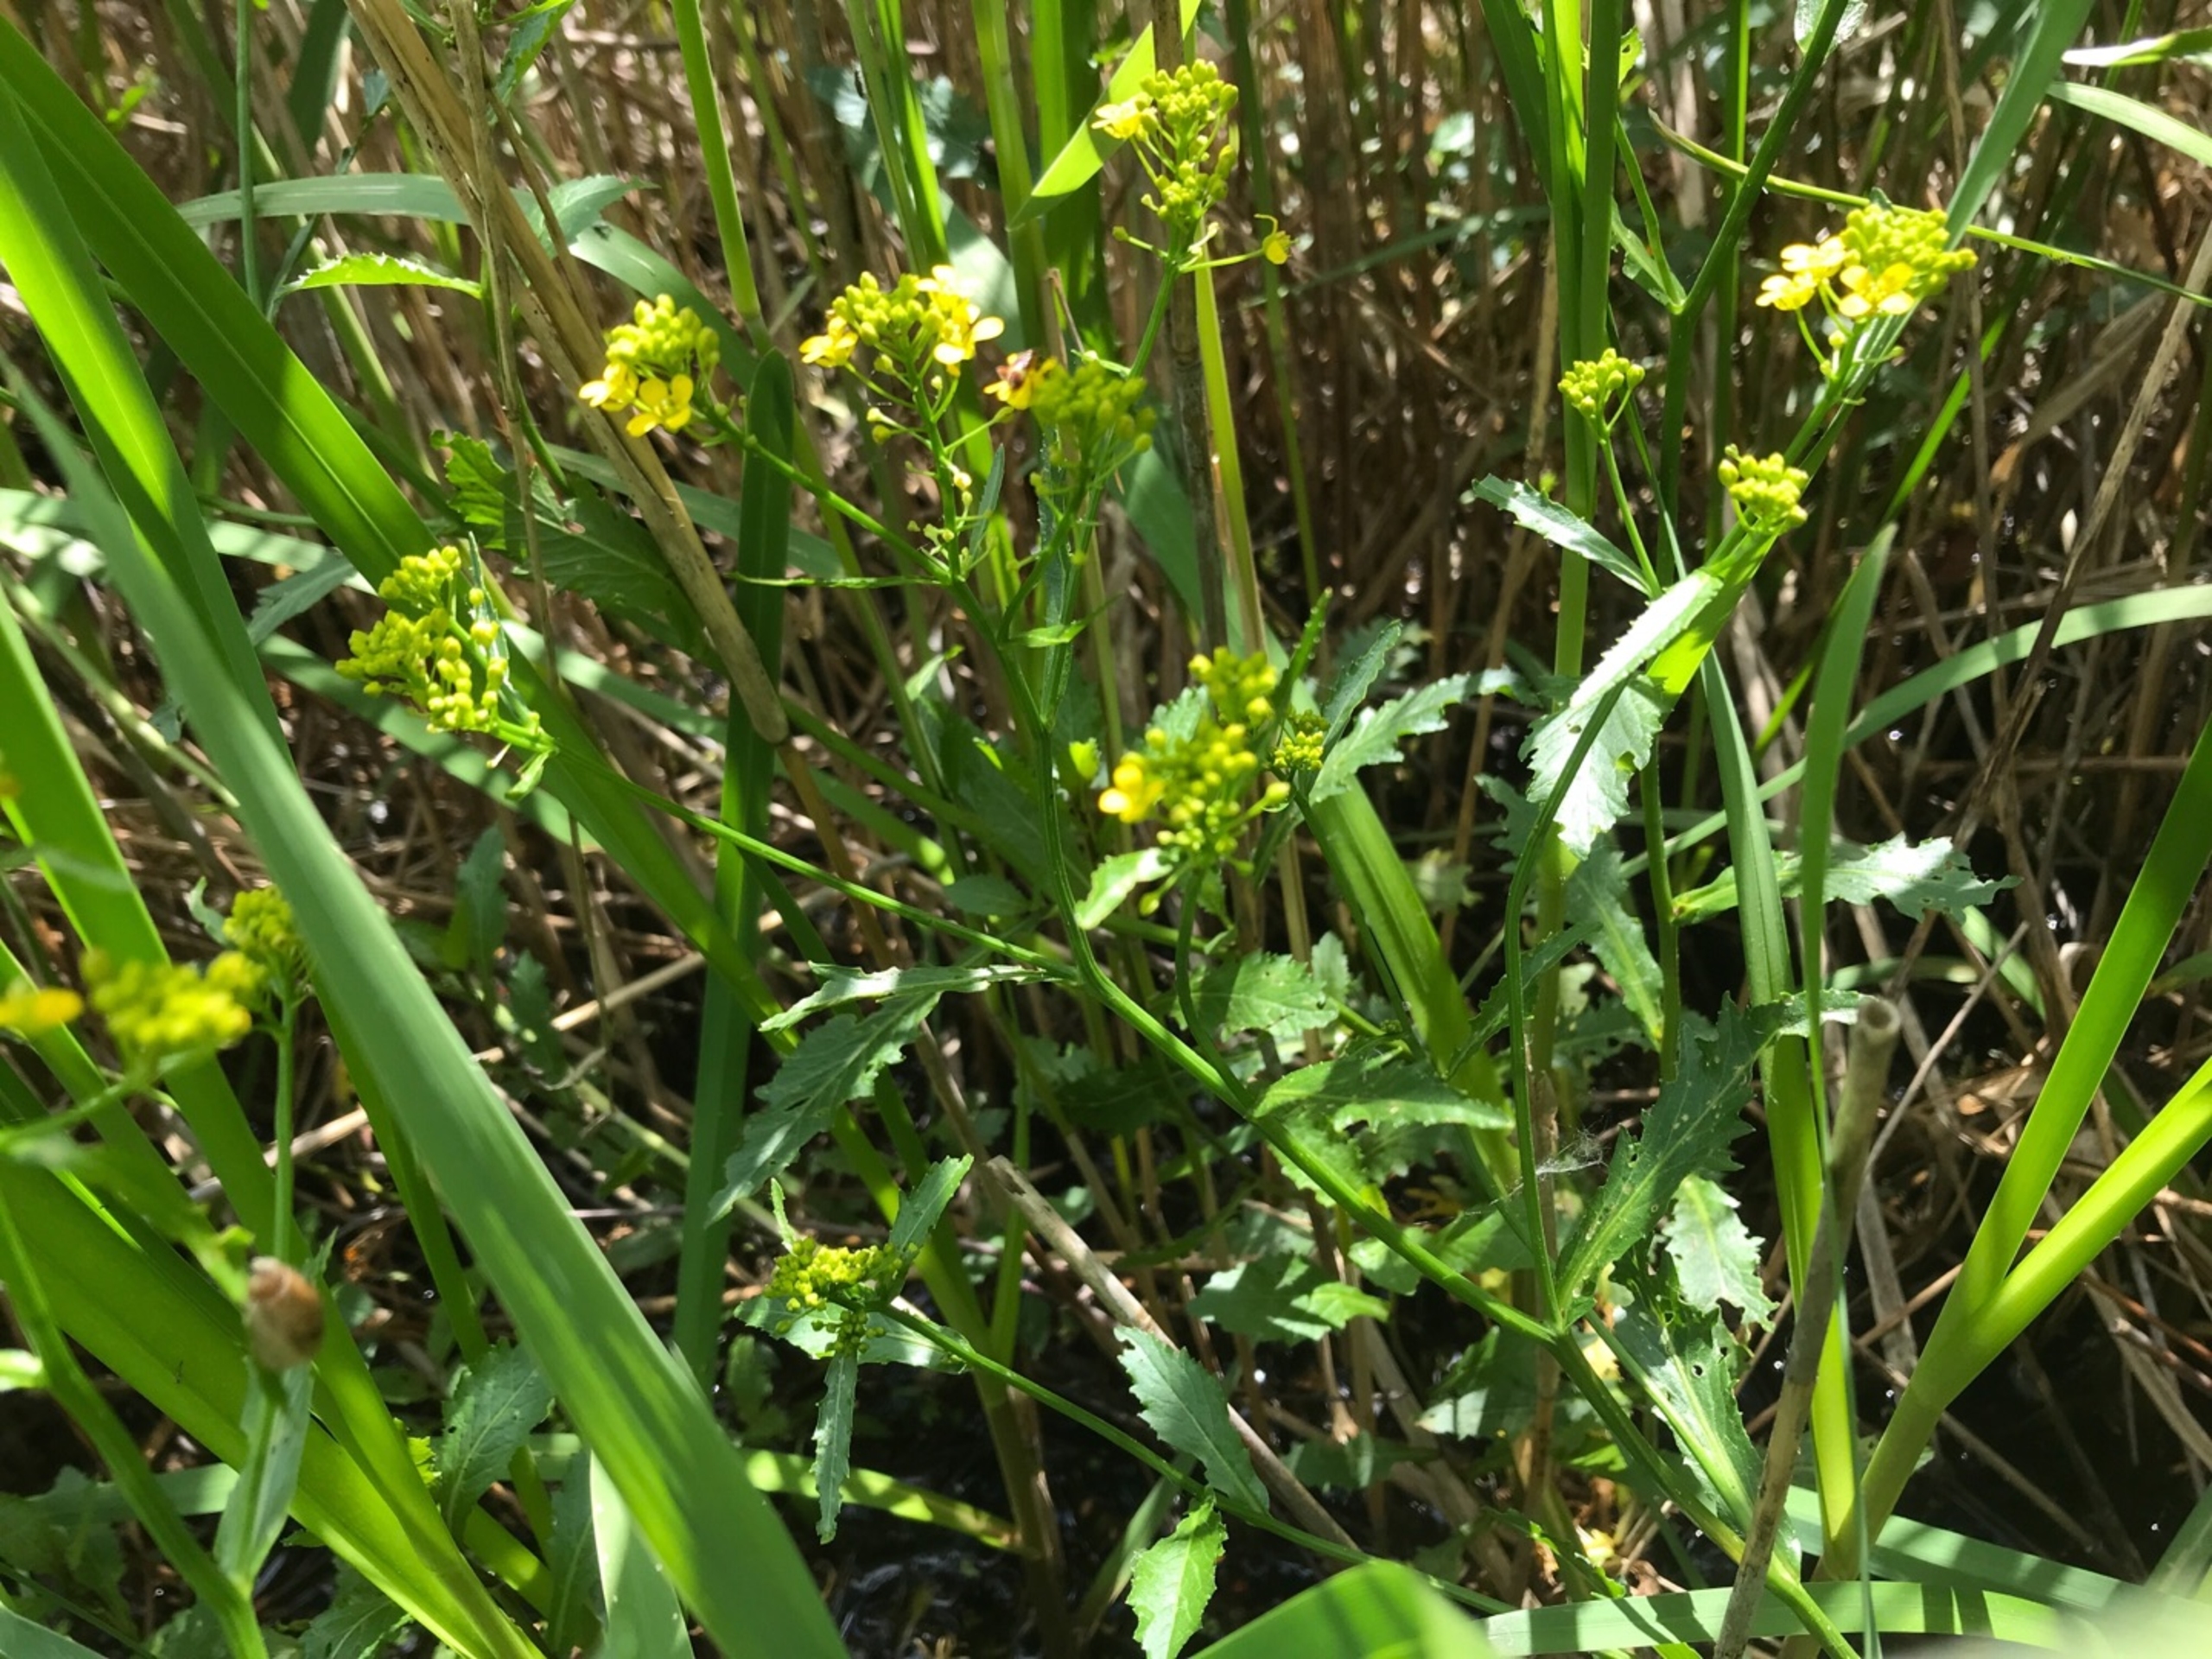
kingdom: Plantae
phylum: Tracheophyta
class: Magnoliopsida
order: Brassicales
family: Brassicaceae
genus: Rorippa
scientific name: Rorippa amphibia
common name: Vandpeberrod
